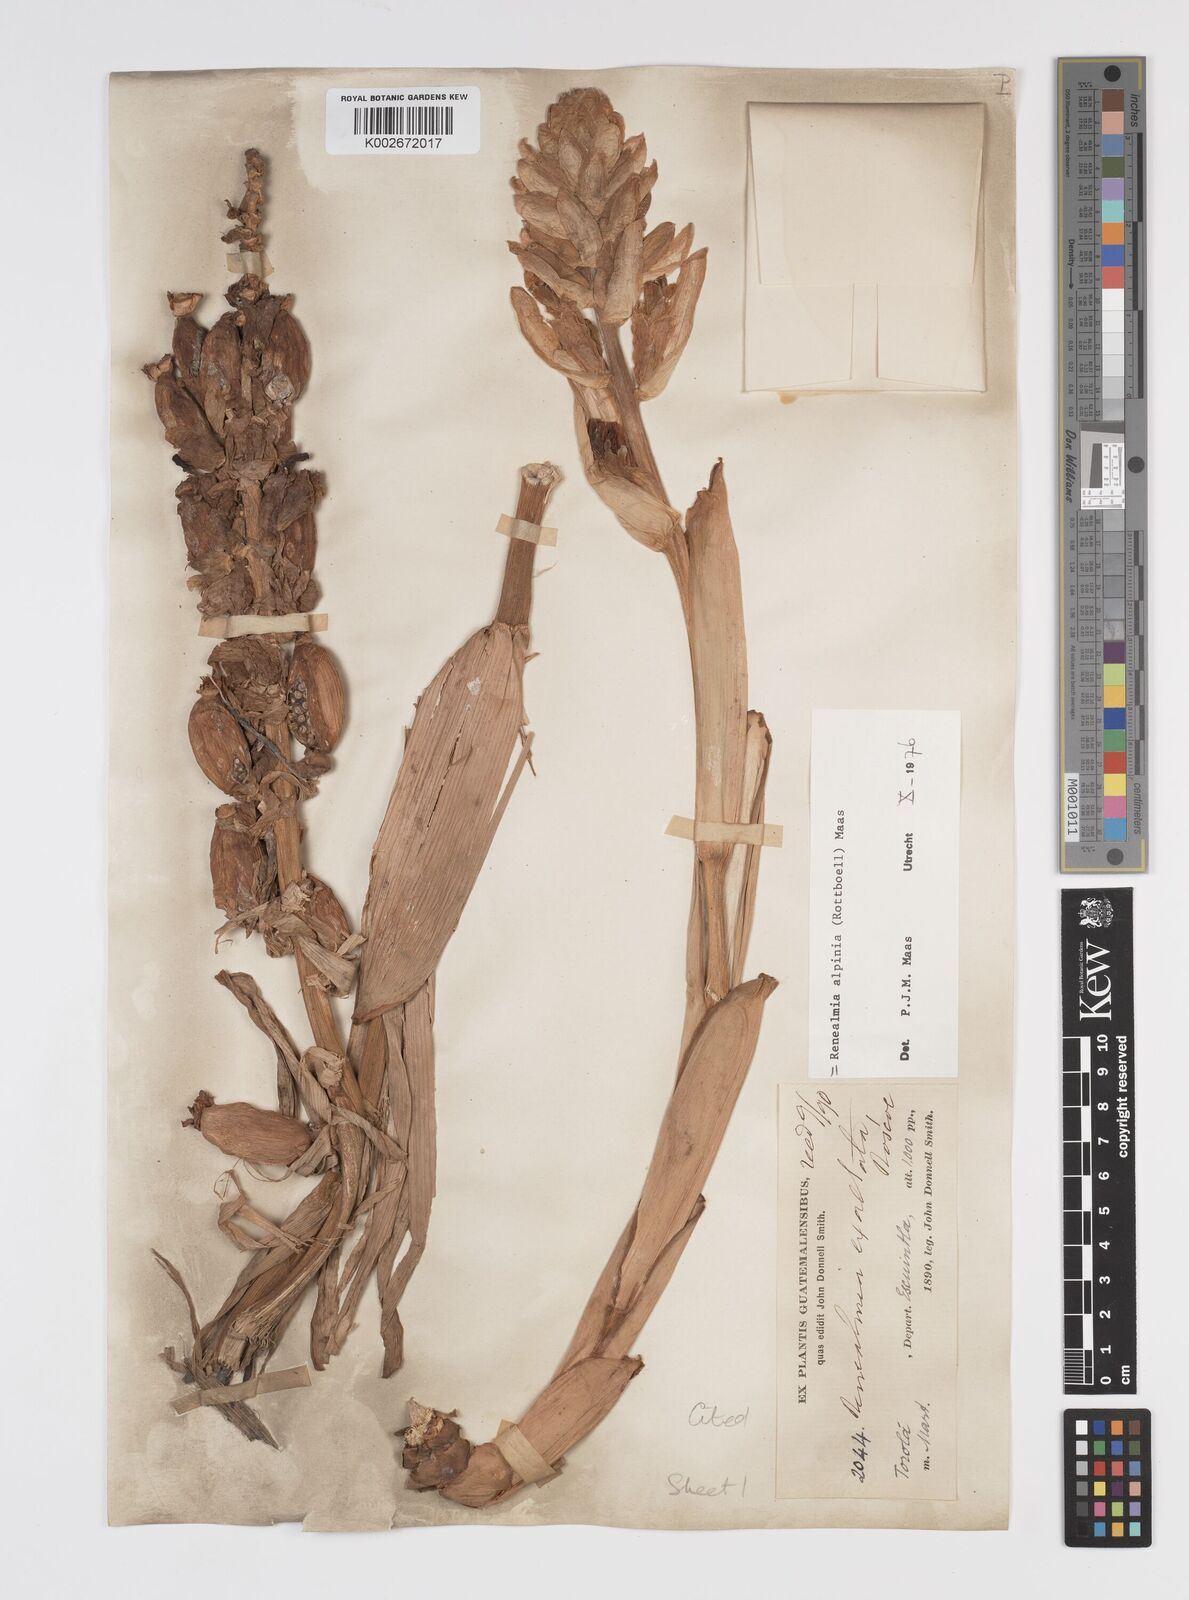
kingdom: Plantae
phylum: Tracheophyta
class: Liliopsida
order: Zingiberales
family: Zingiberaceae
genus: Renealmia
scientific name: Renealmia alpinia
